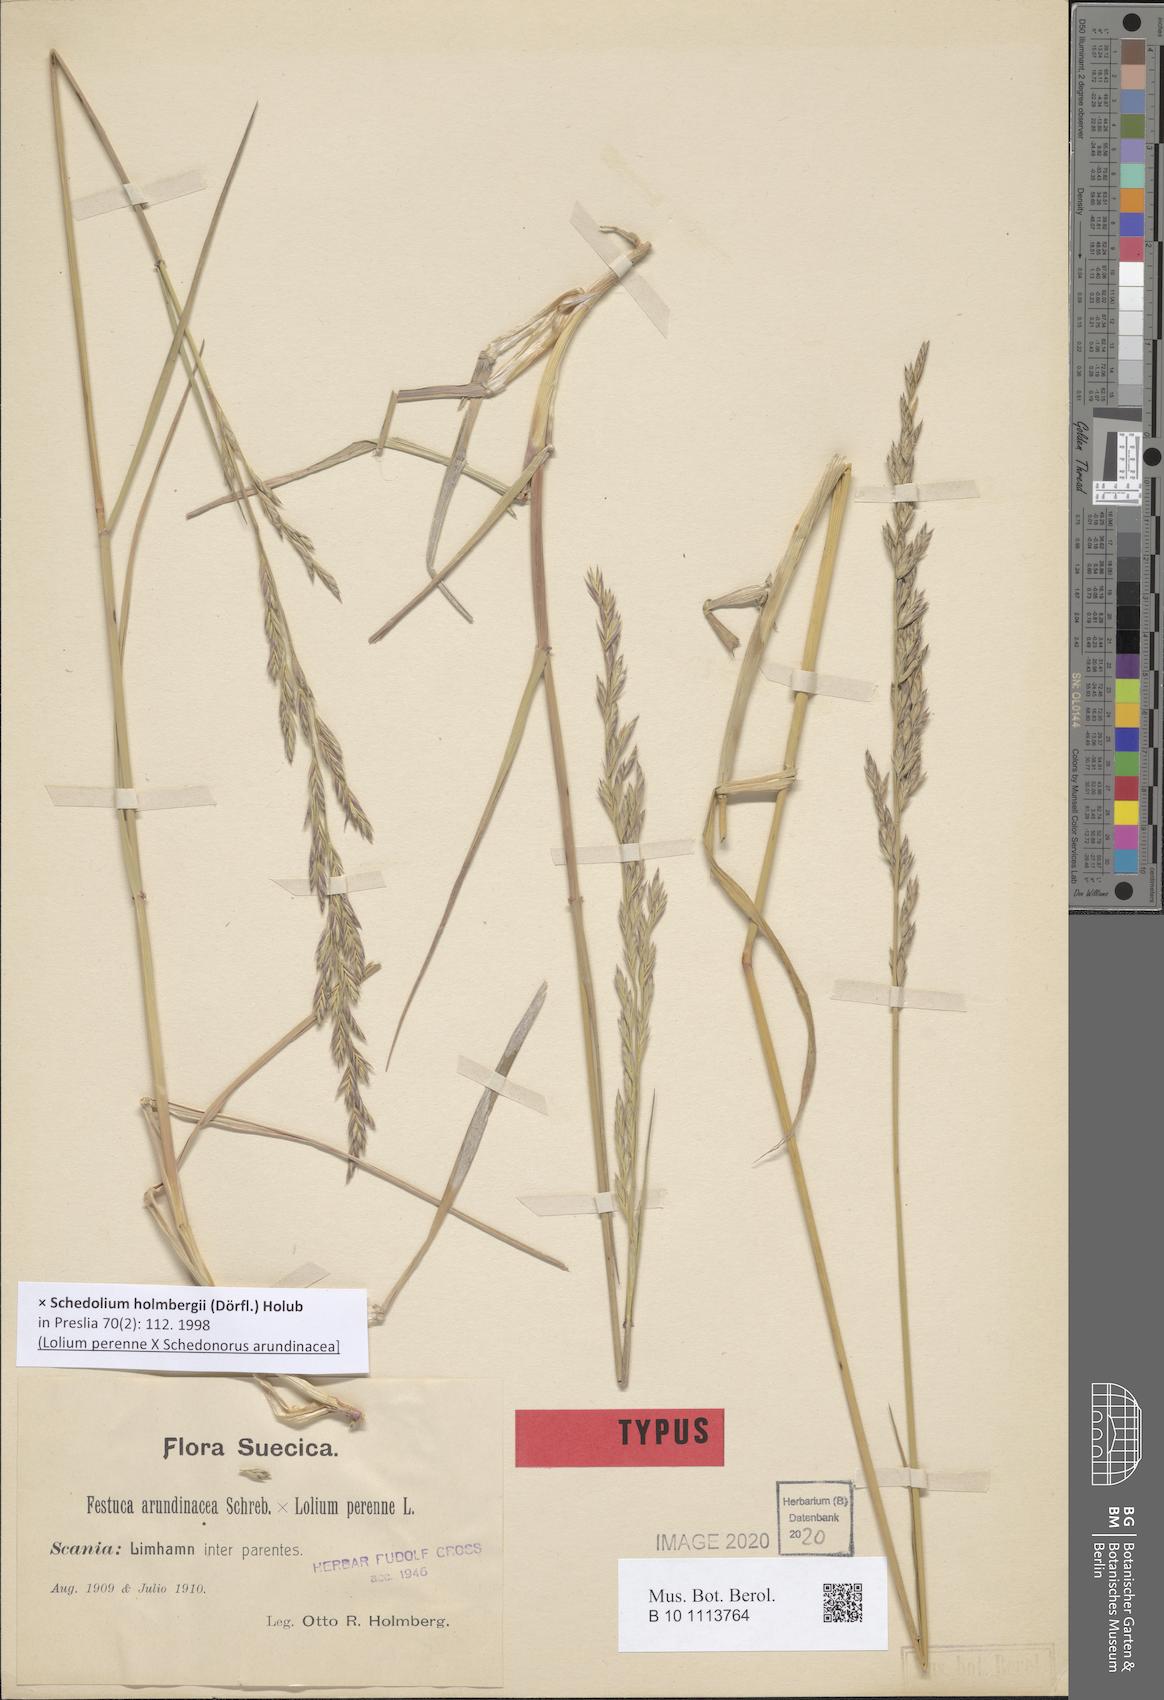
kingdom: Plantae
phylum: Tracheophyta
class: Liliopsida
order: Poales
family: Poaceae
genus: Lolium
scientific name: Lolium holmbergii
